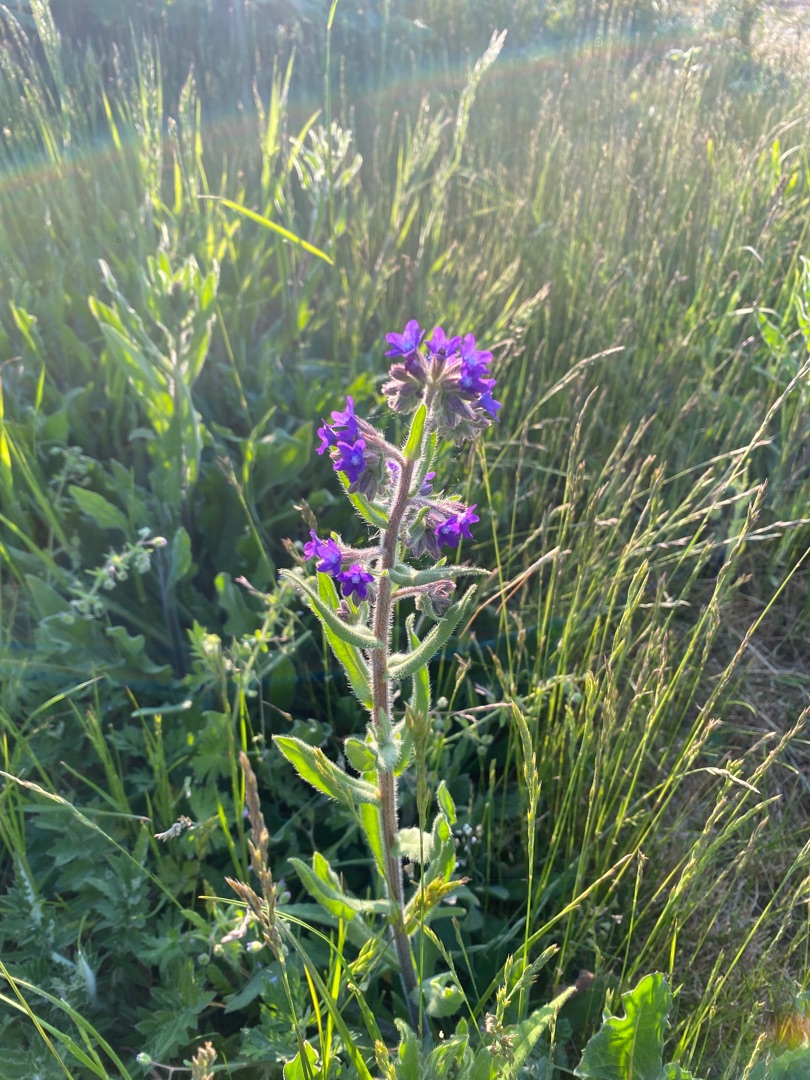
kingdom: Plantae
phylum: Tracheophyta
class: Magnoliopsida
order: Boraginales
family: Boraginaceae
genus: Anchusa
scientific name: Anchusa officinalis
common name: Læge-oksetunge
